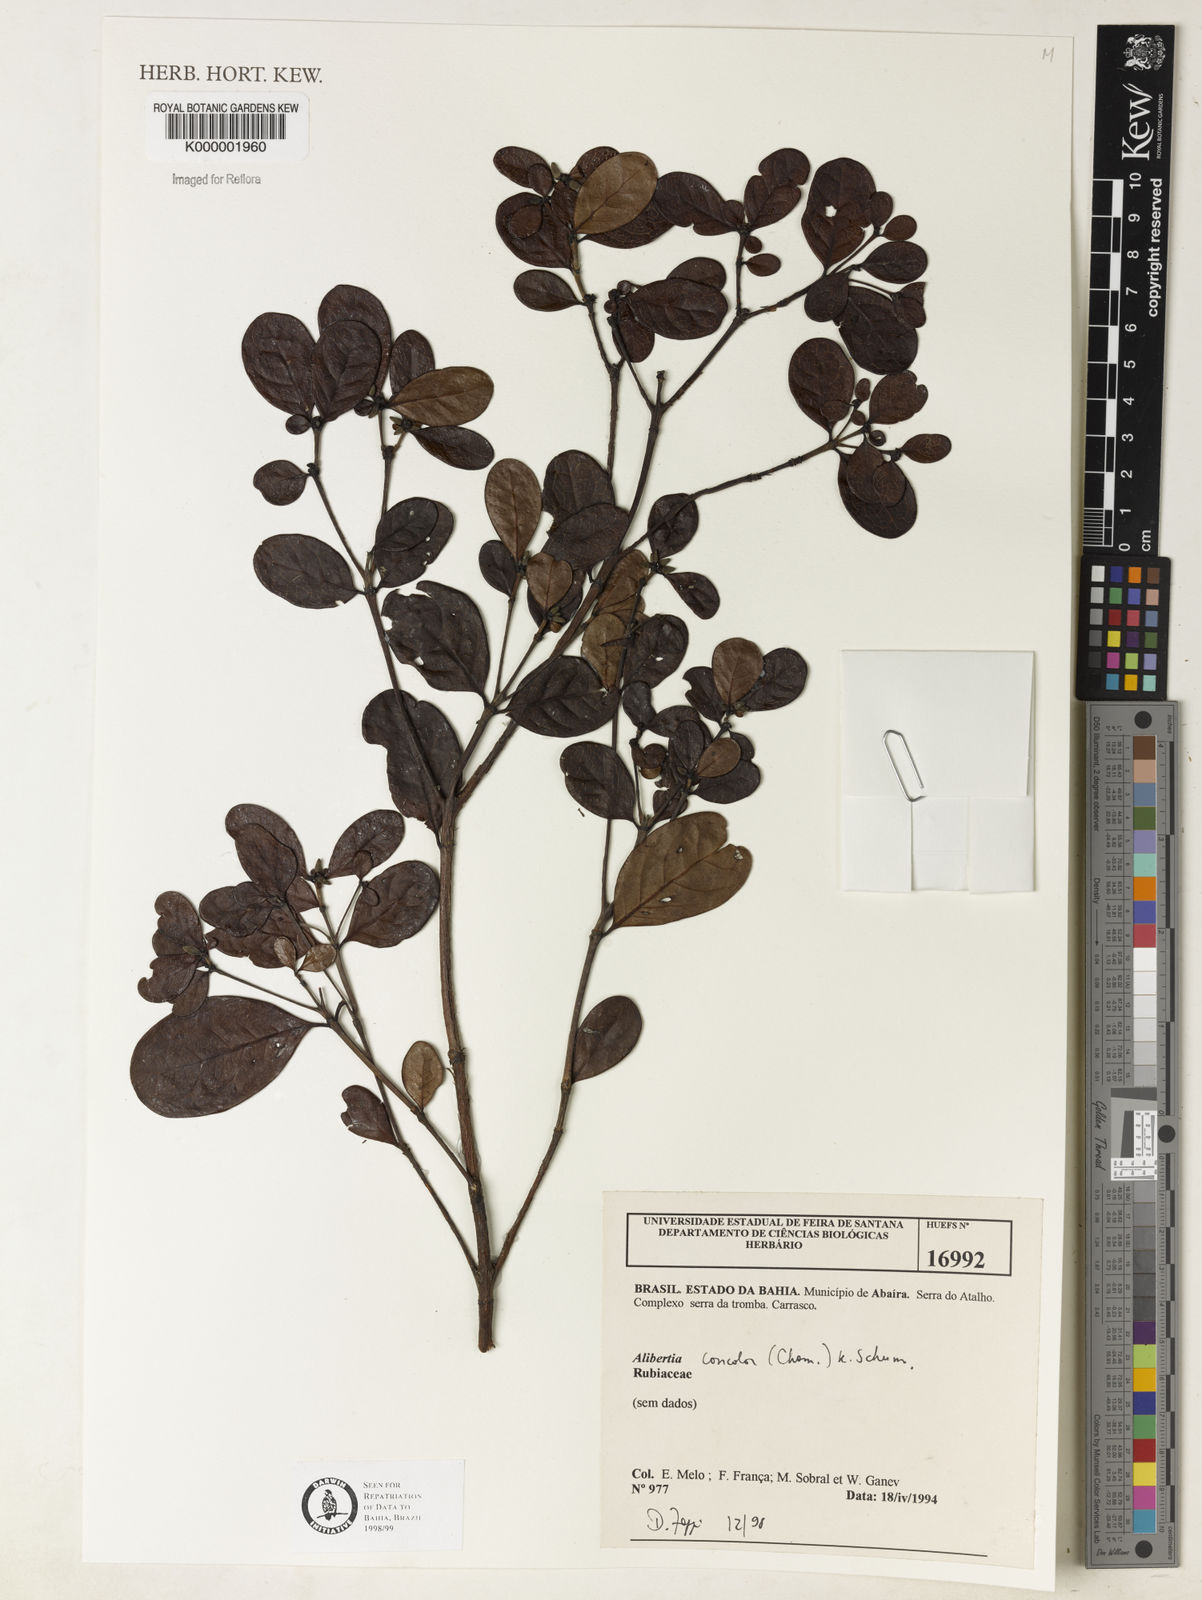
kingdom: Plantae
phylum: Tracheophyta
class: Magnoliopsida
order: Gentianales
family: Rubiaceae
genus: Cordiera
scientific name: Cordiera concolor
